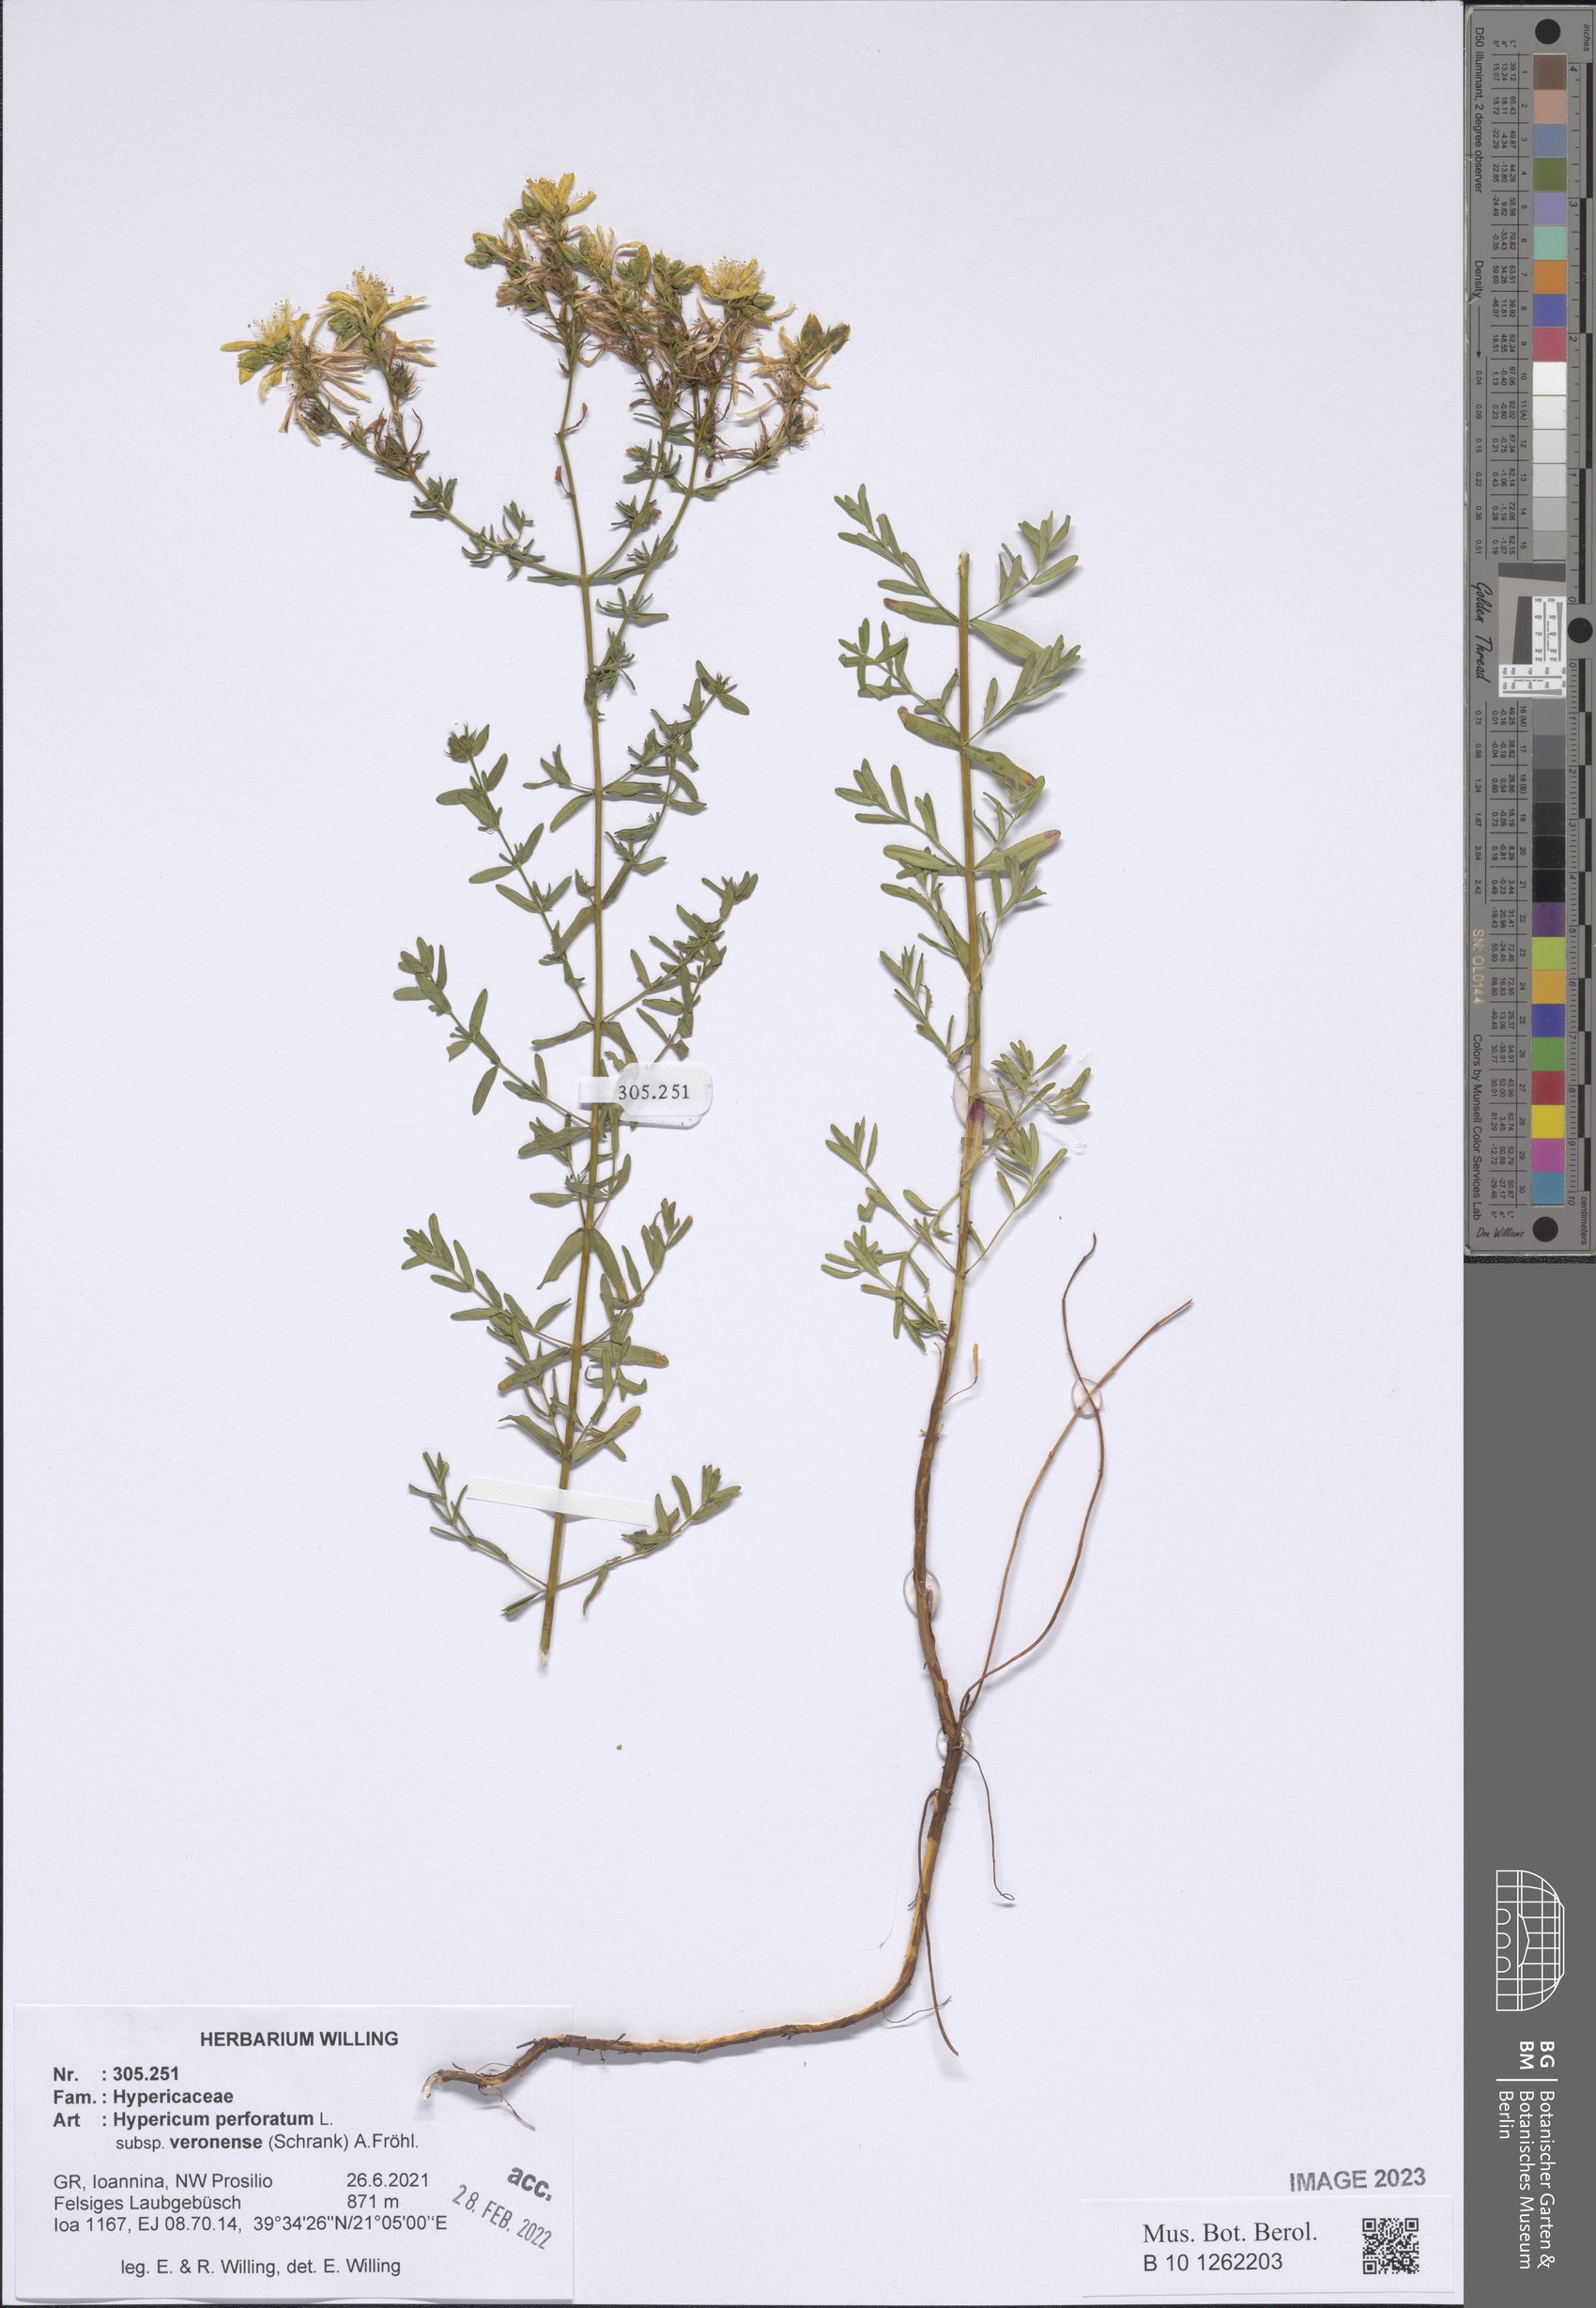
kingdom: Plantae
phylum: Tracheophyta
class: Magnoliopsida
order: Malpighiales
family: Hypericaceae
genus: Hypericum
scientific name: Hypericum veronense
